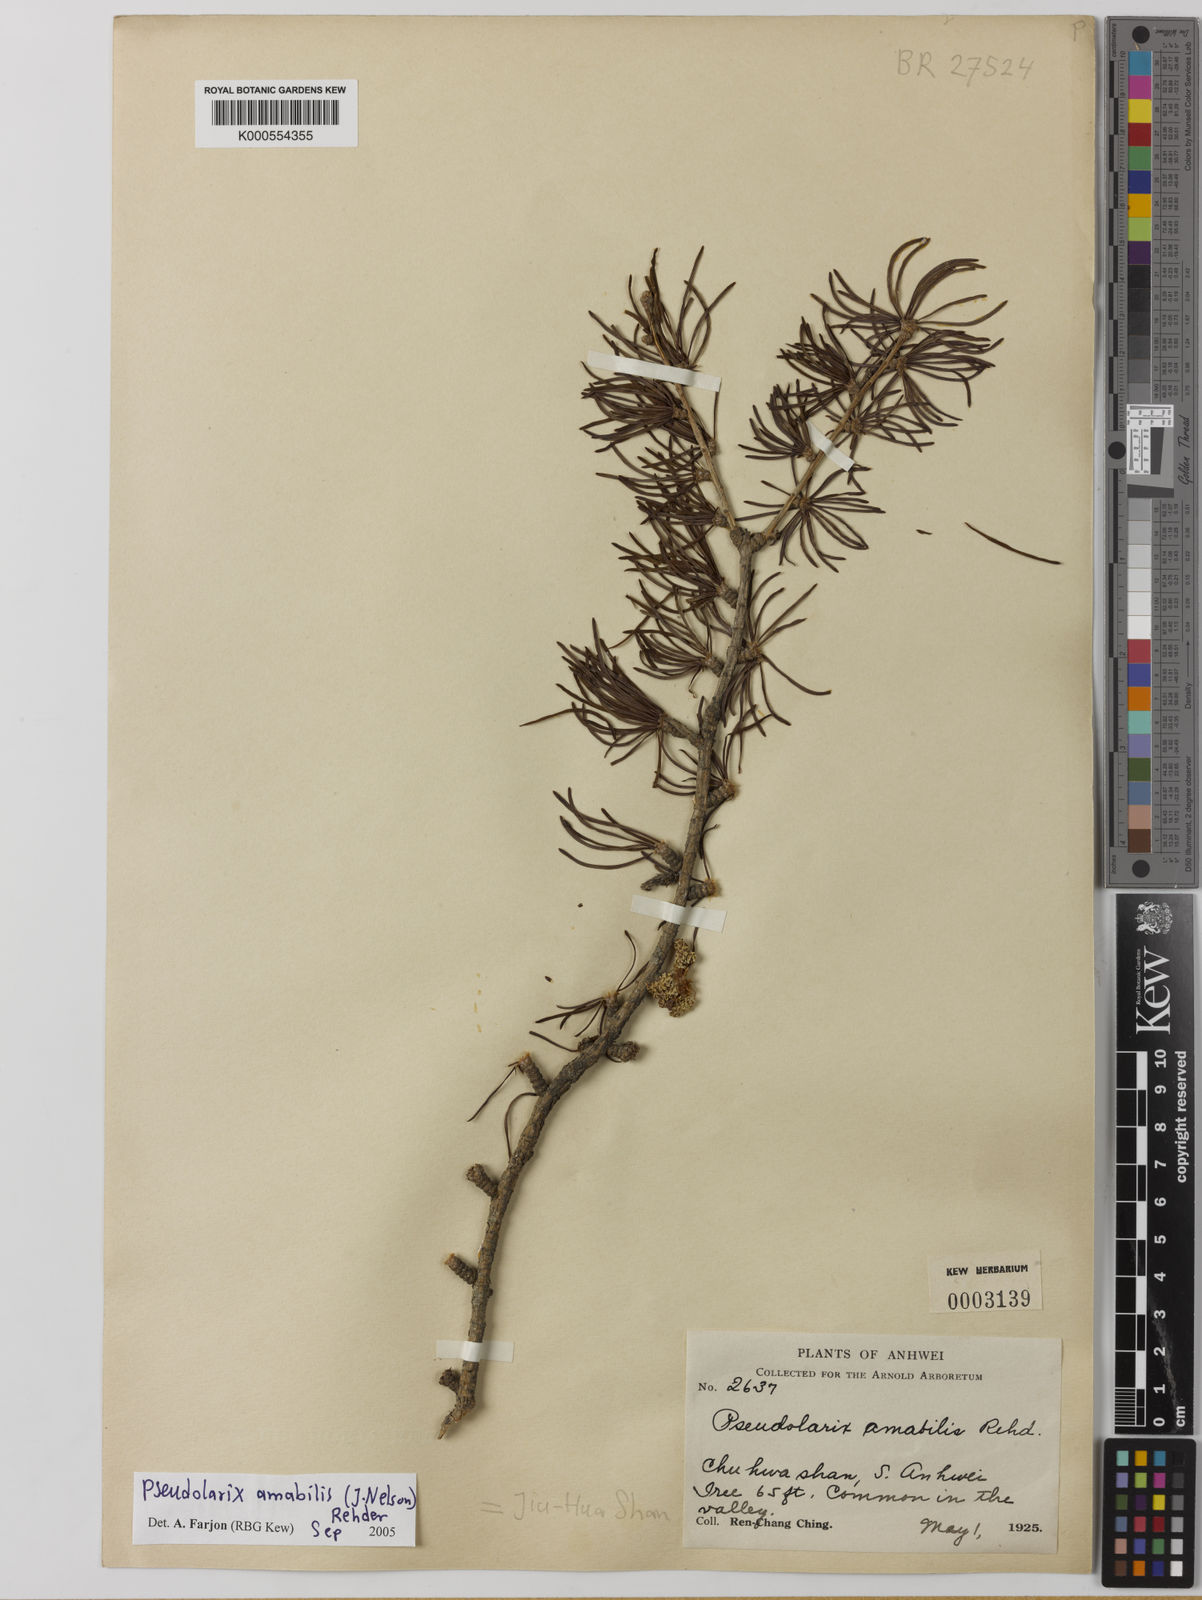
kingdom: Plantae
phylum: Tracheophyta
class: Pinopsida
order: Pinales
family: Pinaceae
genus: Pseudolarix
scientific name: Pseudolarix amabilis
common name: Chinese golden larch
